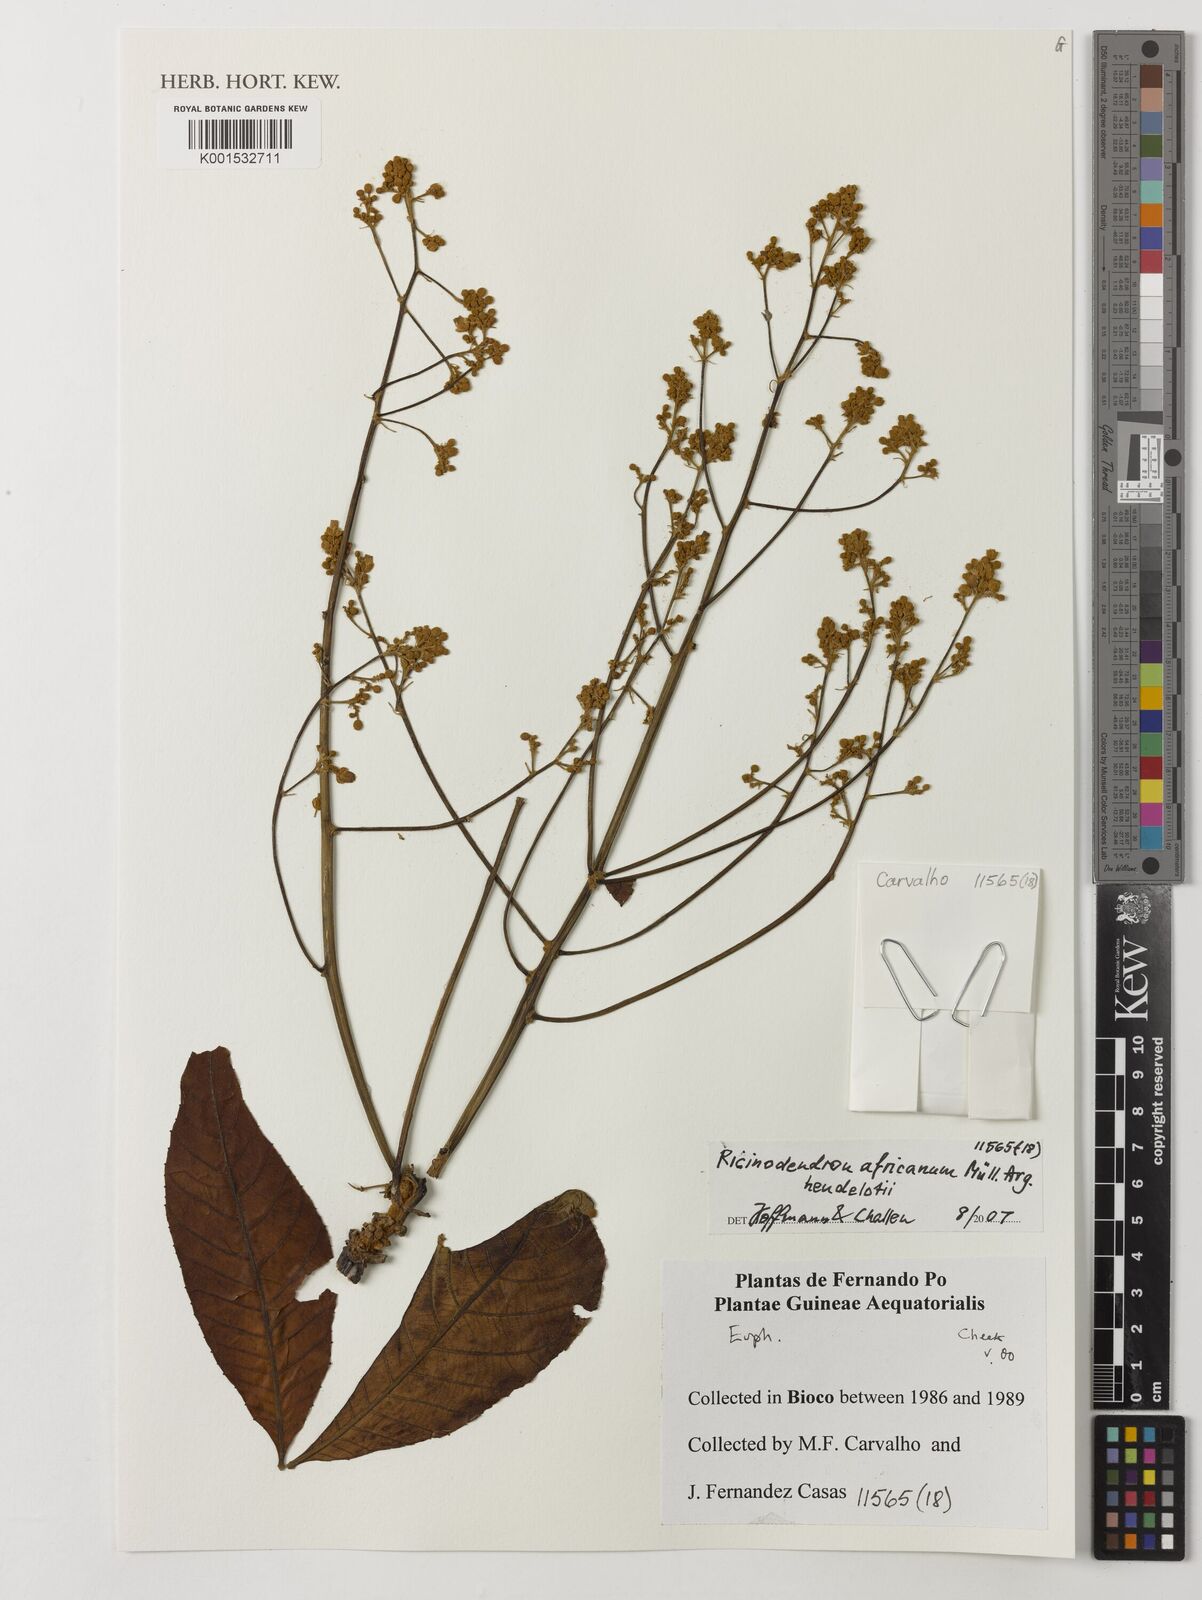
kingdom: Plantae
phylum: Tracheophyta
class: Magnoliopsida
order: Malpighiales
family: Euphorbiaceae
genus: Ricinodendron
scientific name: Ricinodendron heudelotii
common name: African nut-tree
